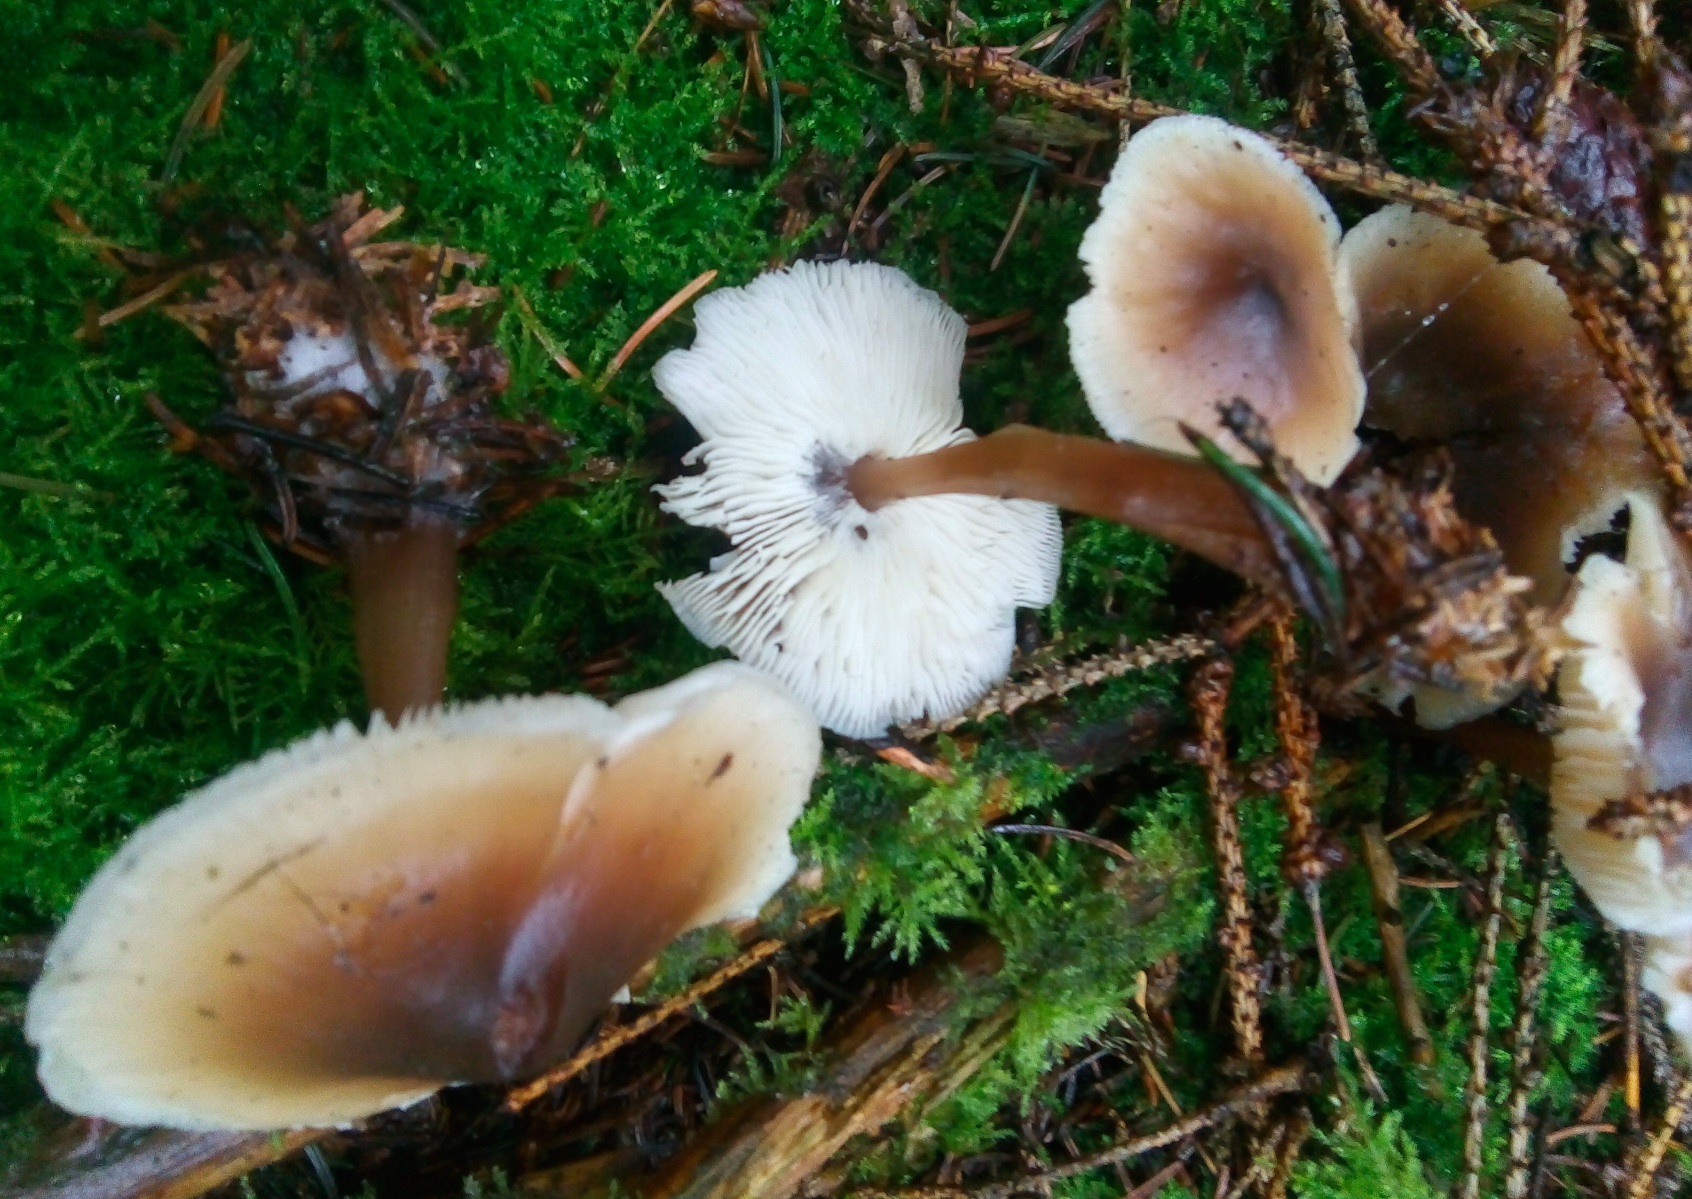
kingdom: Fungi
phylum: Basidiomycota
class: Agaricomycetes
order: Agaricales
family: Omphalotaceae
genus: Rhodocollybia
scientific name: Rhodocollybia asema
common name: horngrå fladhat
